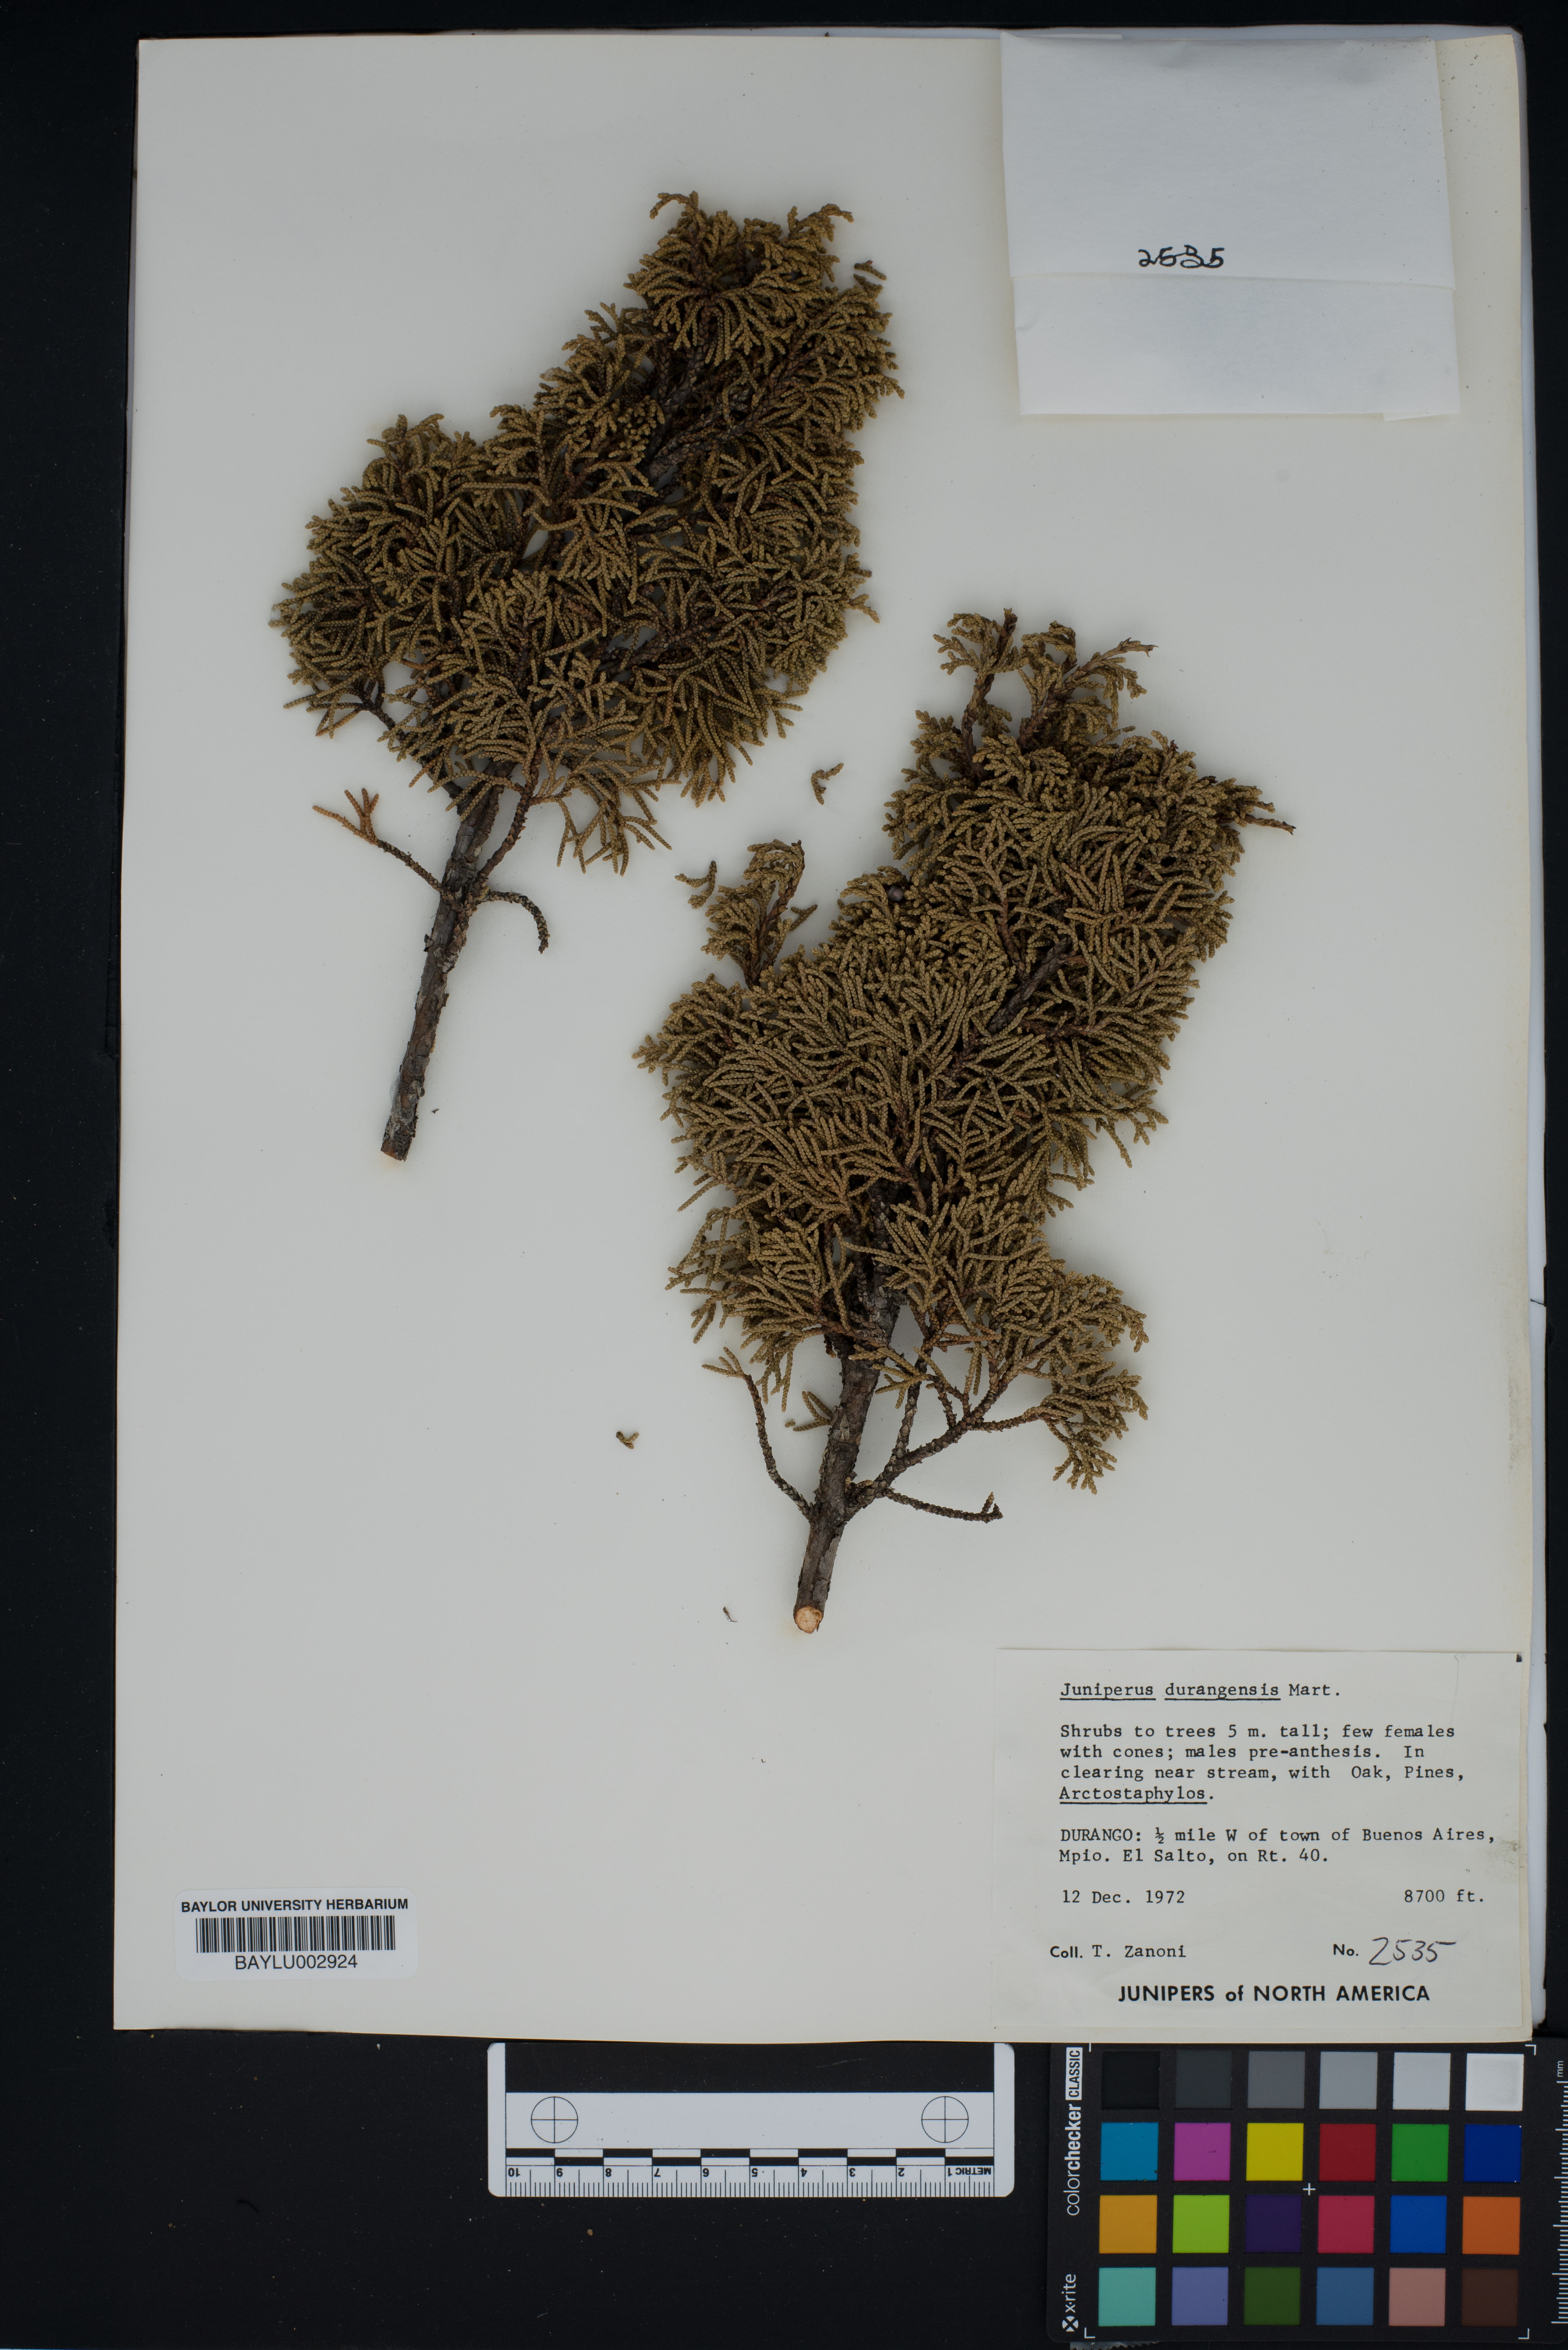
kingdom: Plantae
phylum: Tracheophyta
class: Pinopsida
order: Pinales
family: Cupressaceae
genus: Juniperus
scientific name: Juniperus durangensis
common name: Durango juniper
